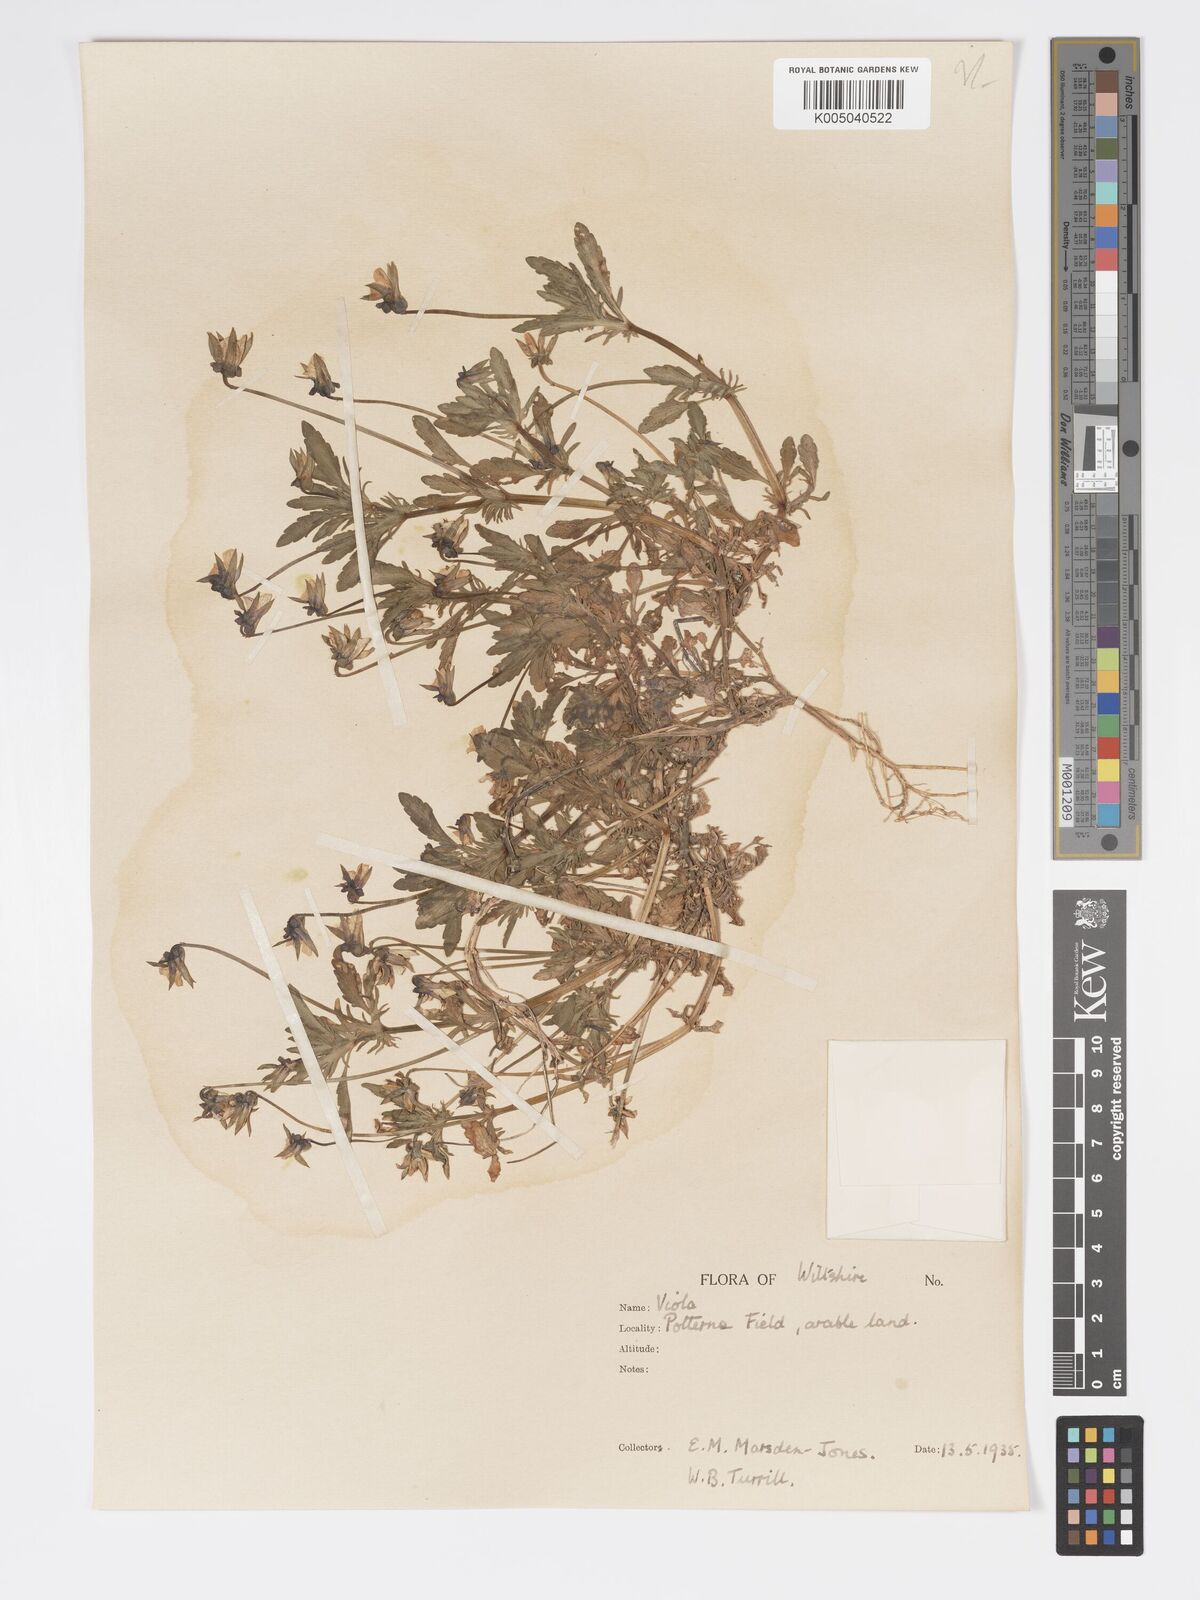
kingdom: Plantae
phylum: Tracheophyta
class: Magnoliopsida
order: Malpighiales
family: Violaceae
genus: Viola
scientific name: Viola
